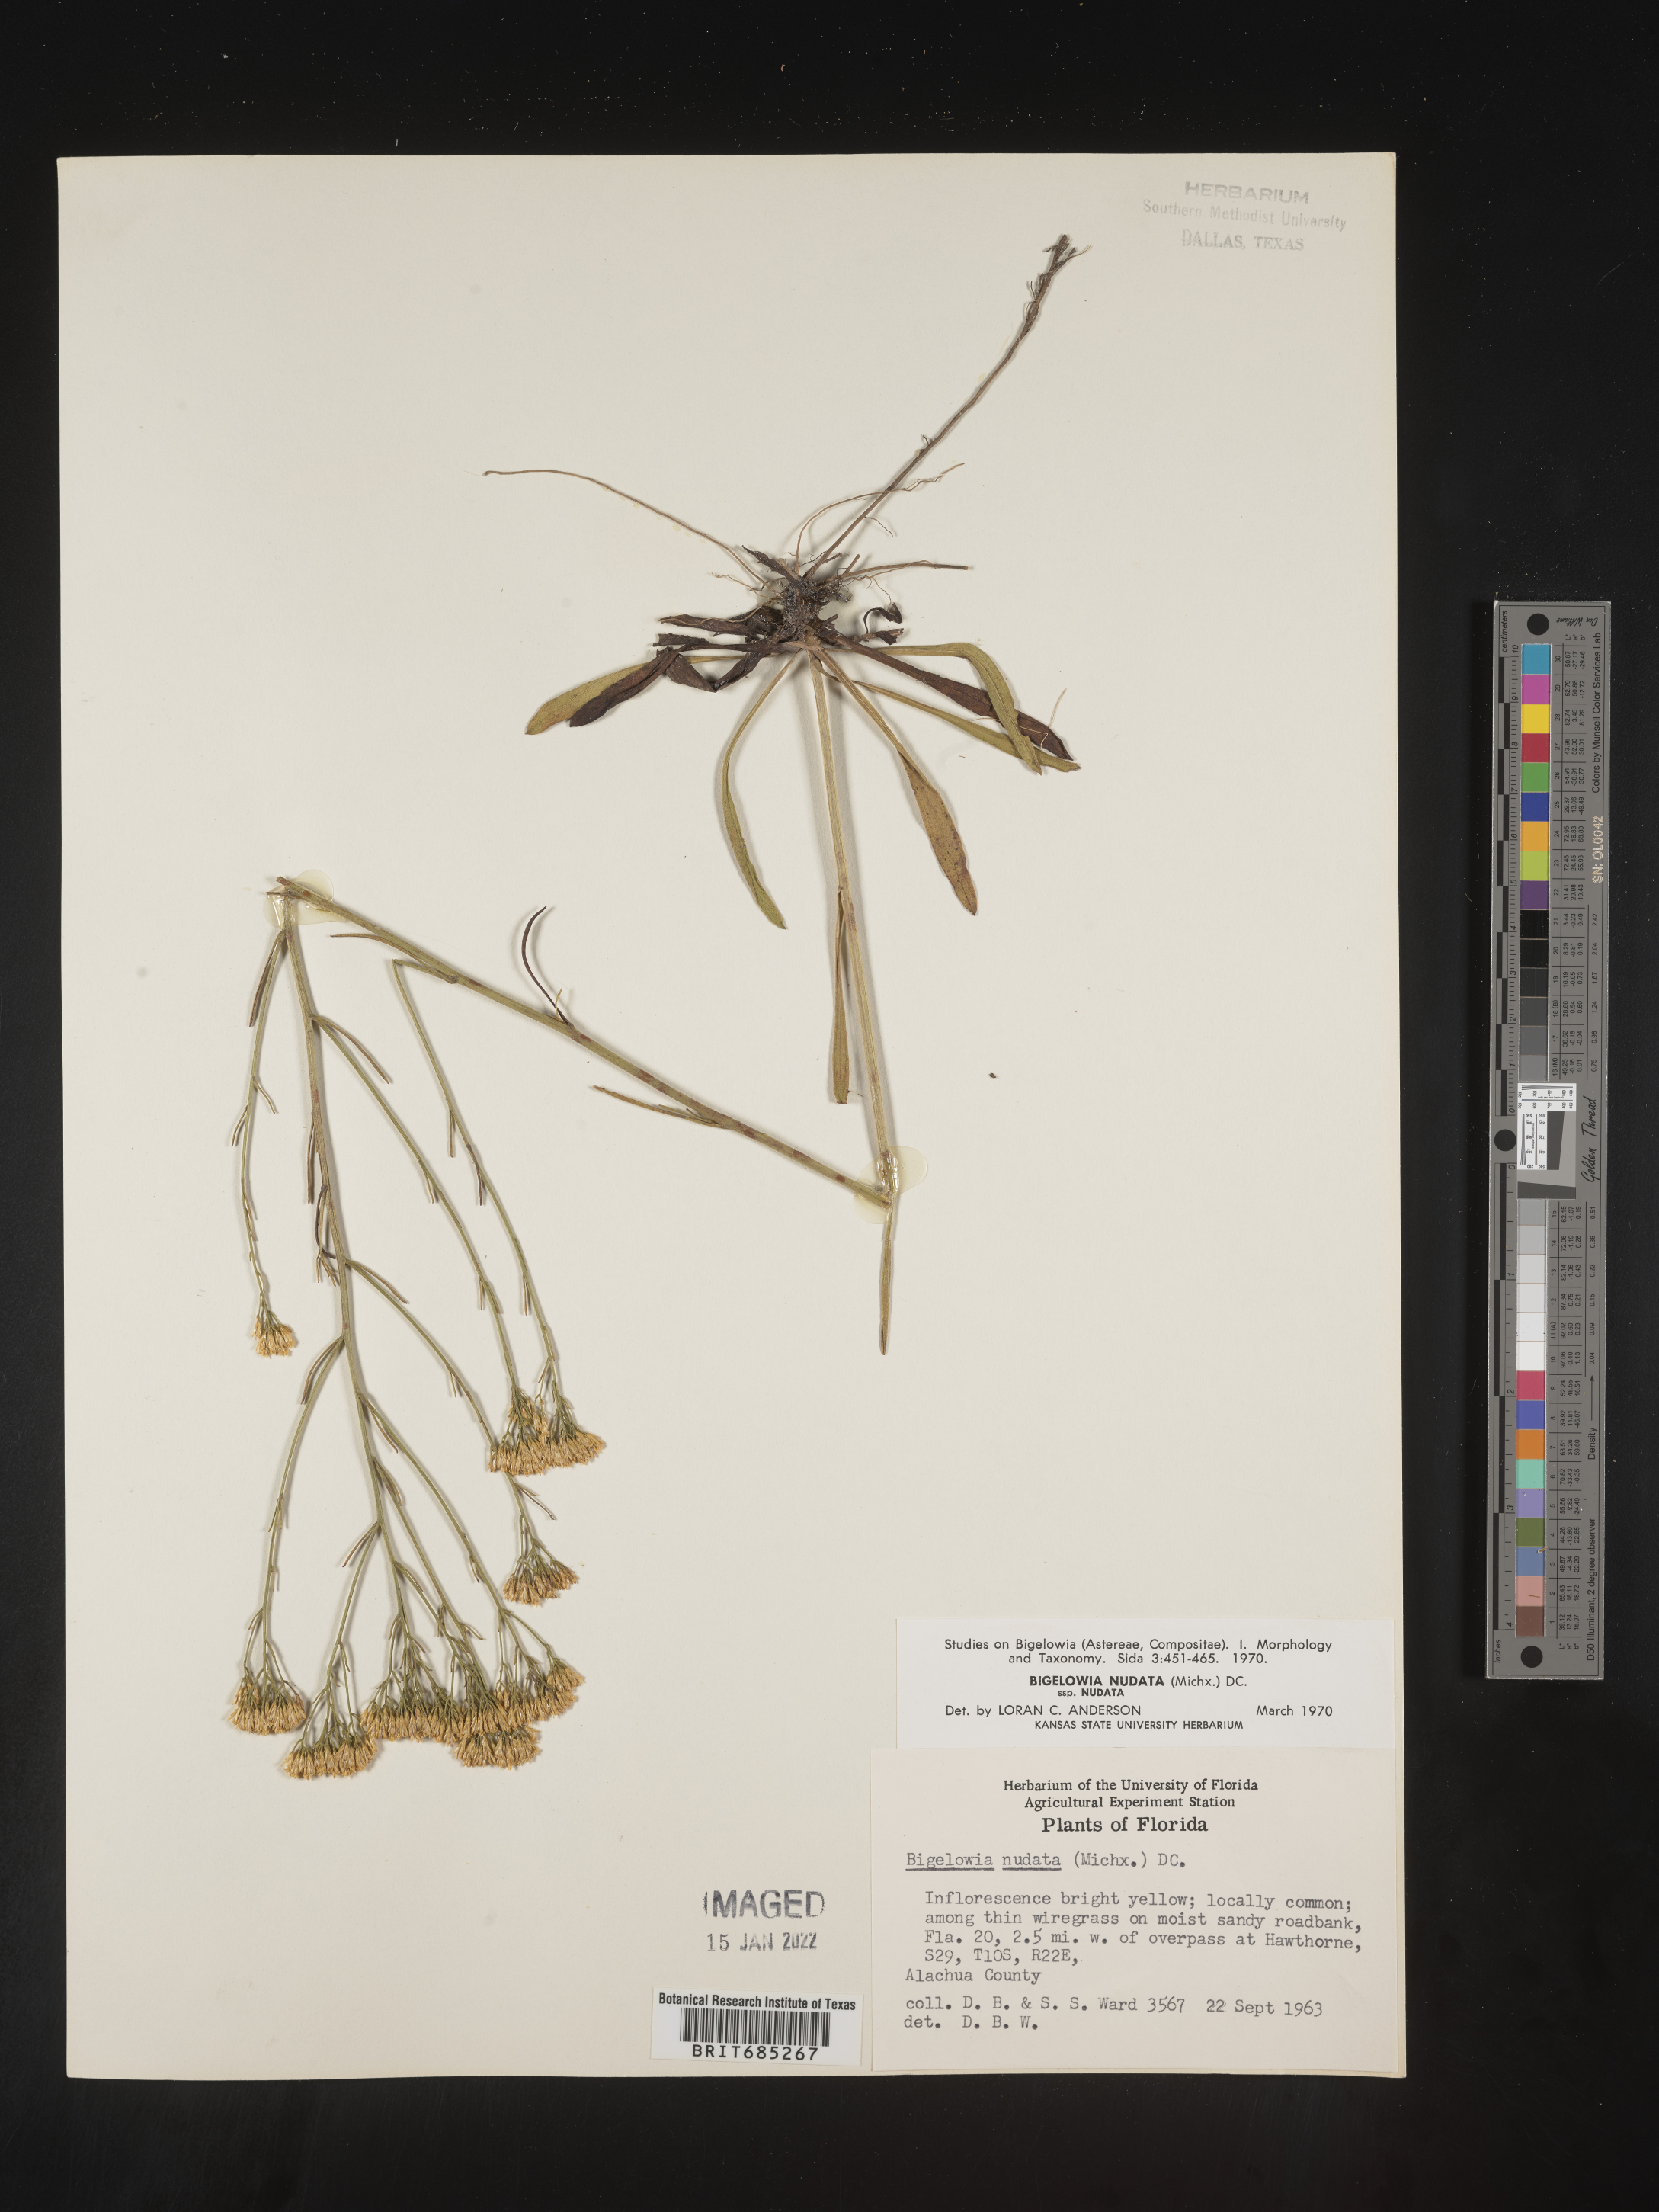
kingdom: Plantae
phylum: Tracheophyta
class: Magnoliopsida
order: Asterales
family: Asteraceae
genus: Bigelowia
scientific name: Bigelowia nudata
